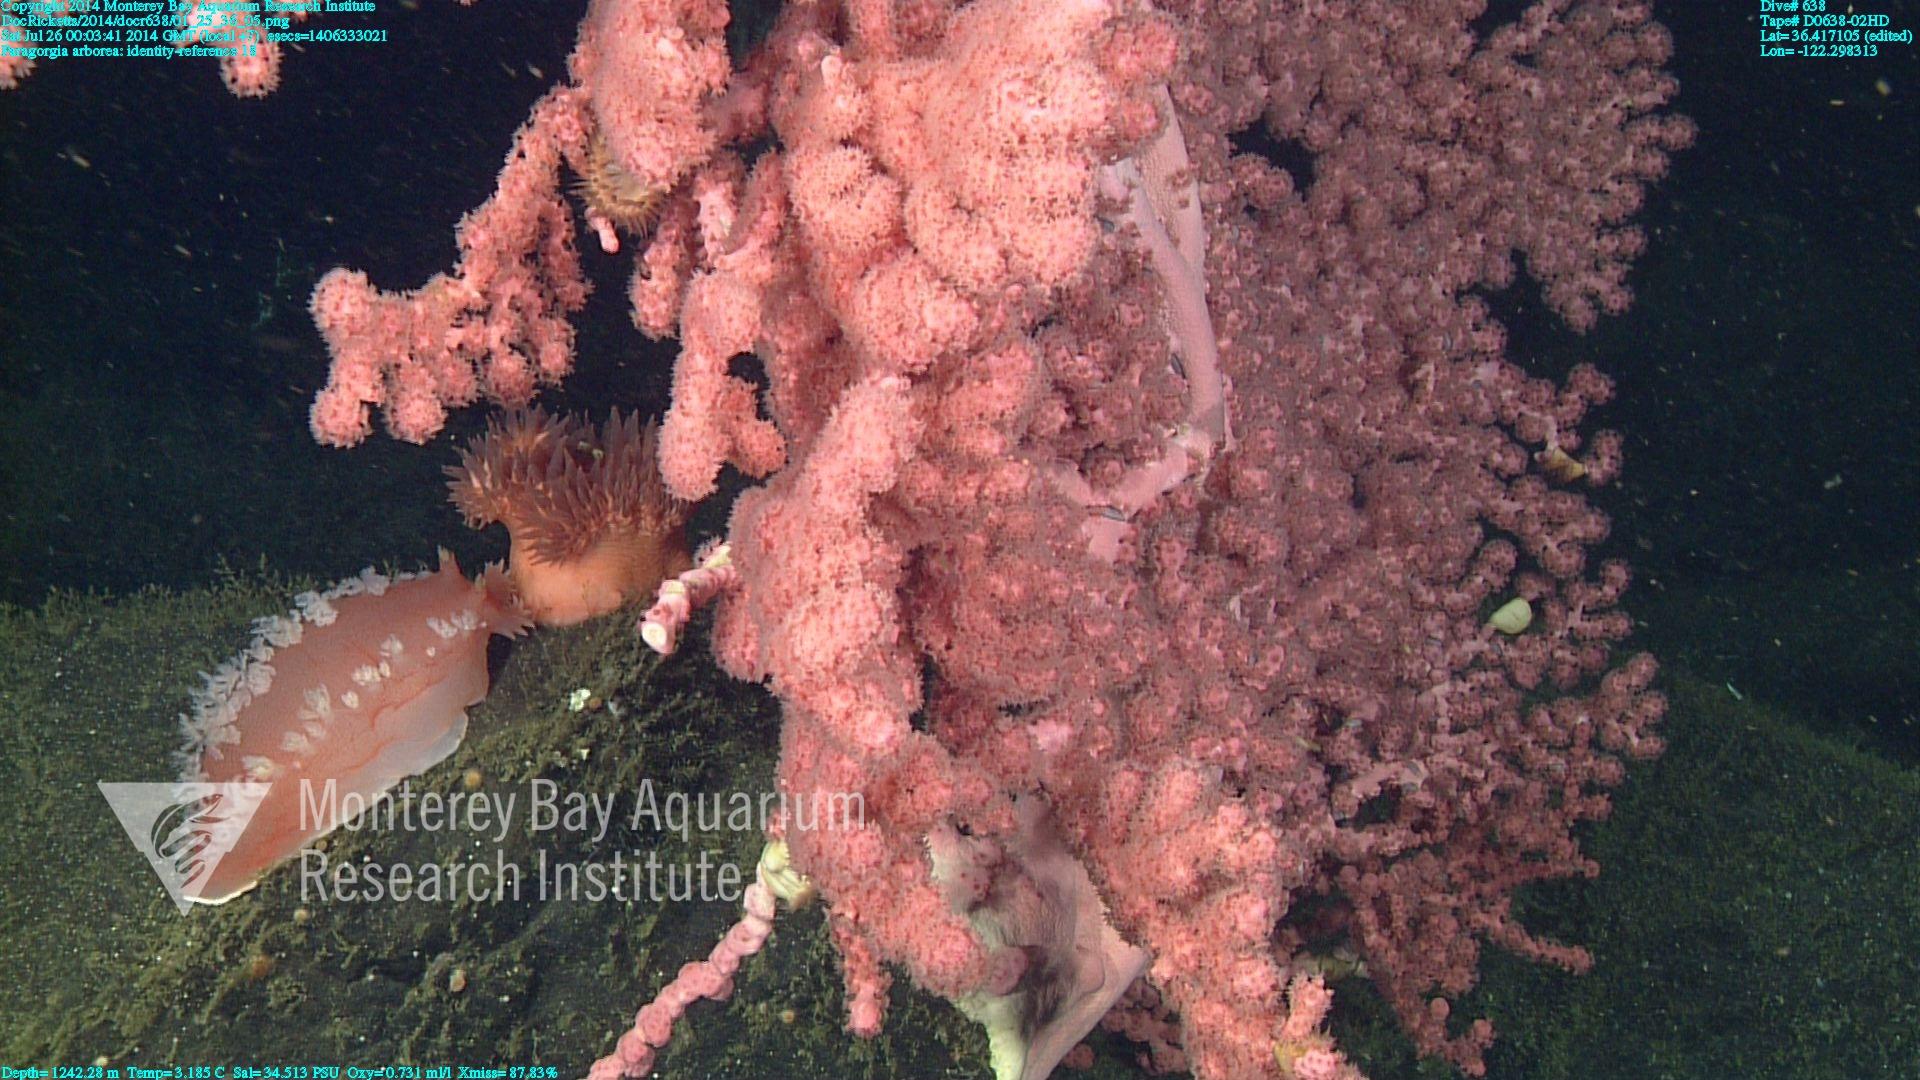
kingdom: Animalia
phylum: Cnidaria
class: Anthozoa
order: Scleralcyonacea
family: Coralliidae
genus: Paragorgia
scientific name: Paragorgia arborea
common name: Bubble gum coral
